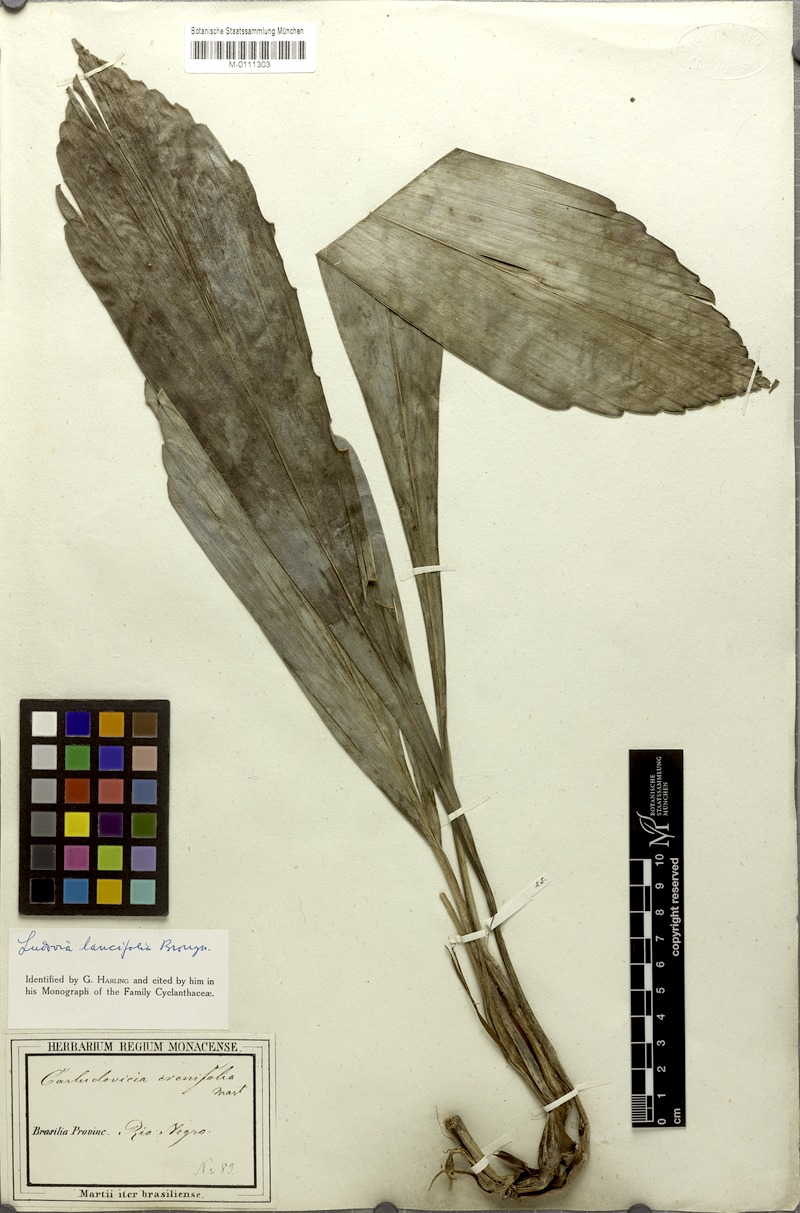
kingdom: Plantae
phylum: Tracheophyta
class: Liliopsida
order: Pandanales
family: Cyclanthaceae
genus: Ludovia
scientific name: Ludovia lancifolia
